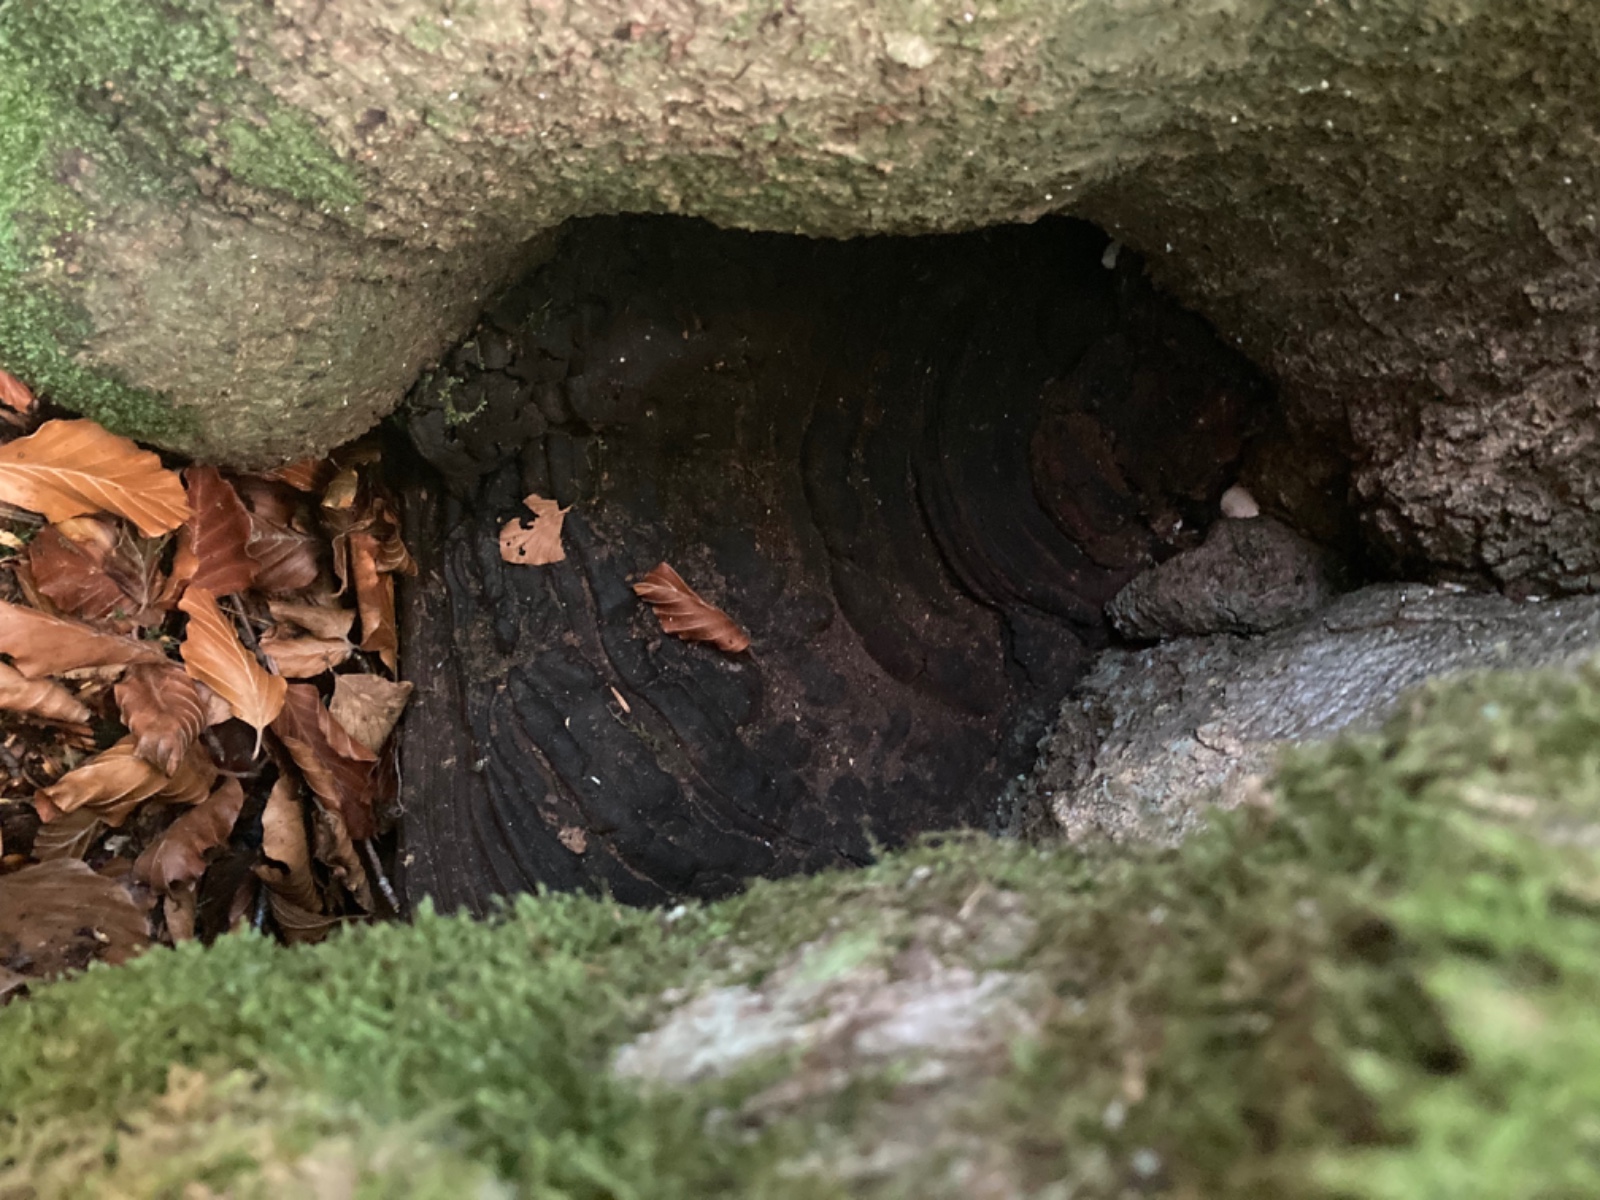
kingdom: Fungi
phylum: Basidiomycota
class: Agaricomycetes
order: Polyporales
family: Polyporaceae
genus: Ganoderma
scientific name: Ganoderma adspersum
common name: grov lakporesvamp
